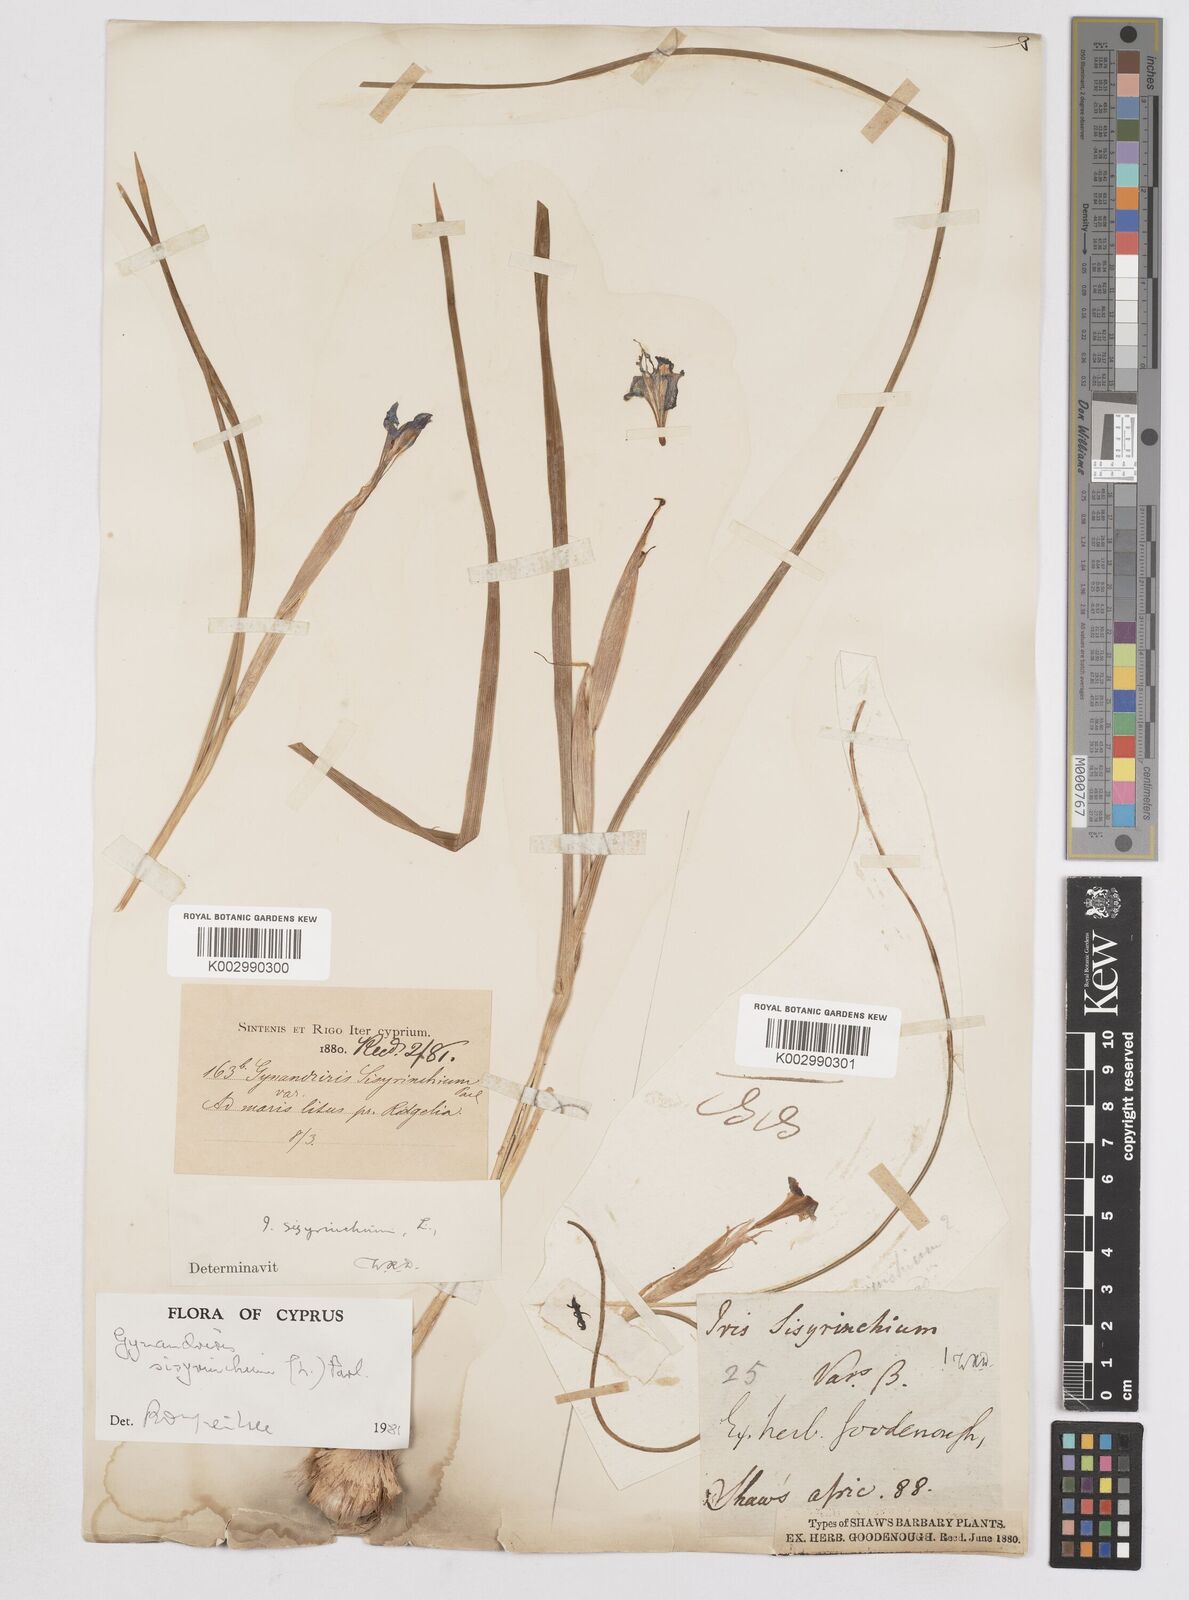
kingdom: Plantae
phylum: Tracheophyta
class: Liliopsida
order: Asparagales
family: Iridaceae
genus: Moraea
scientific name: Moraea sisyrinchium
